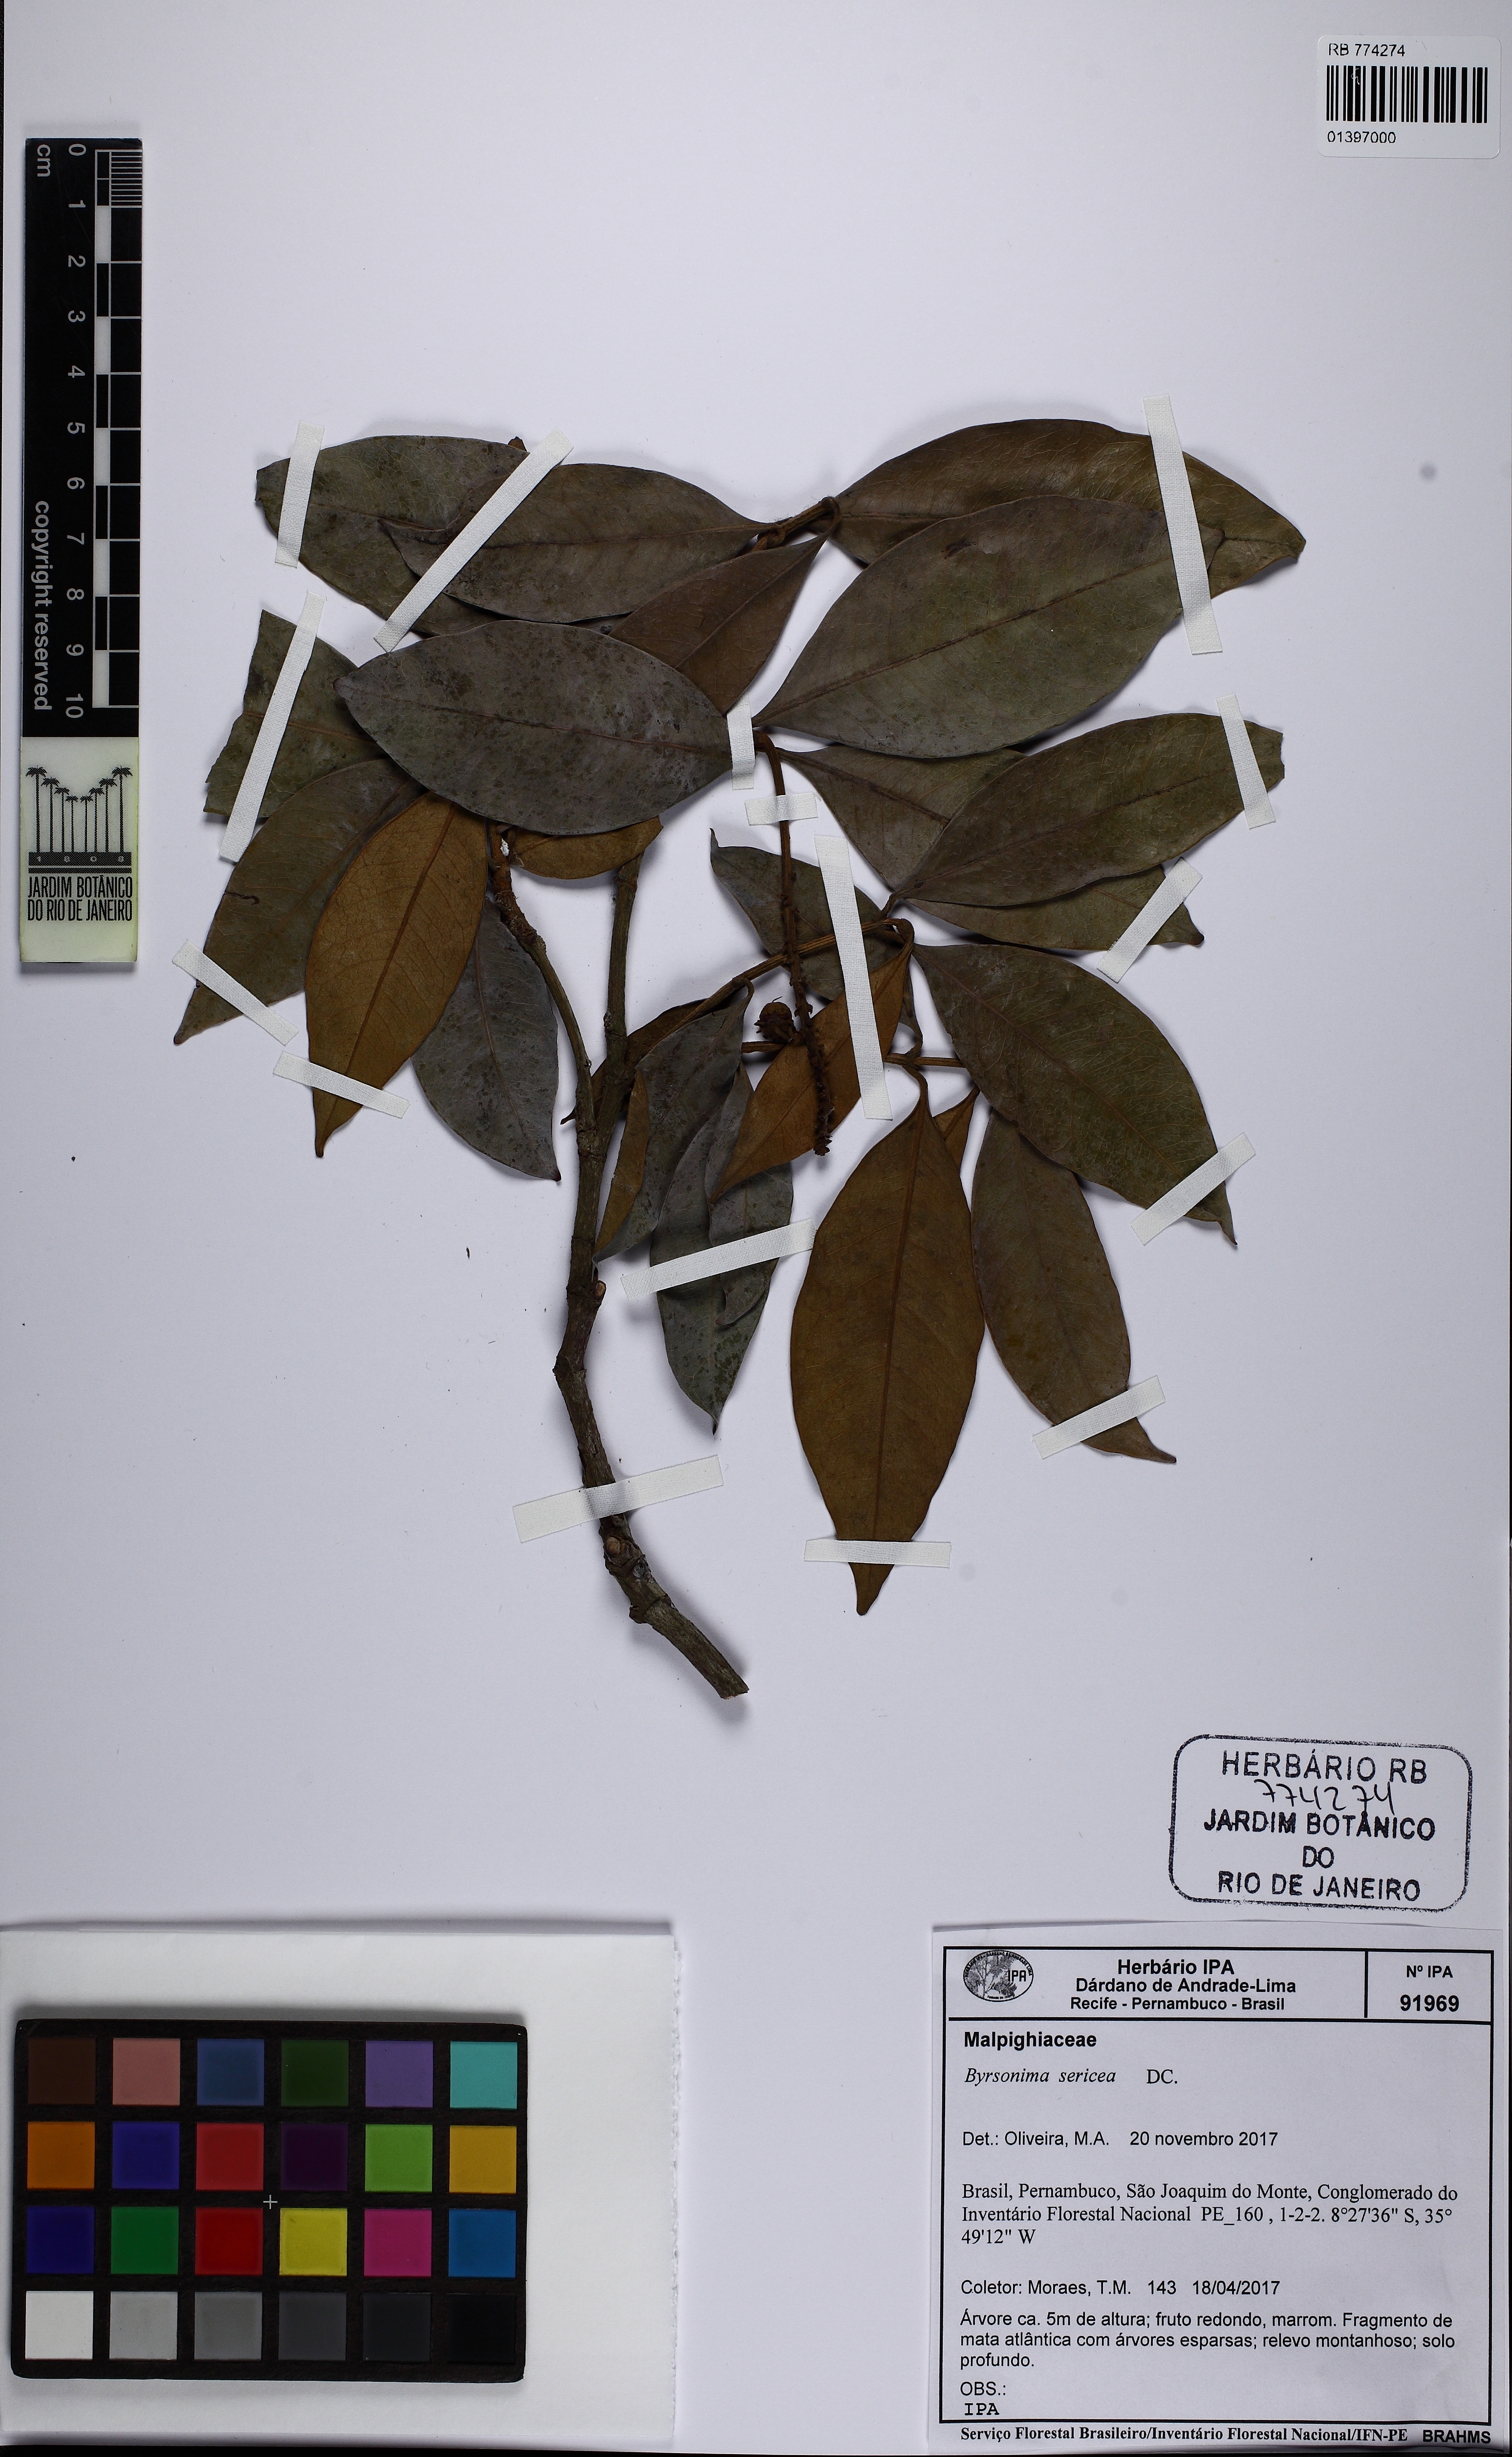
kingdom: Plantae
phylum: Tracheophyta
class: Magnoliopsida
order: Malpighiales
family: Malpighiaceae
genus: Byrsonima
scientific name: Byrsonima sericea
